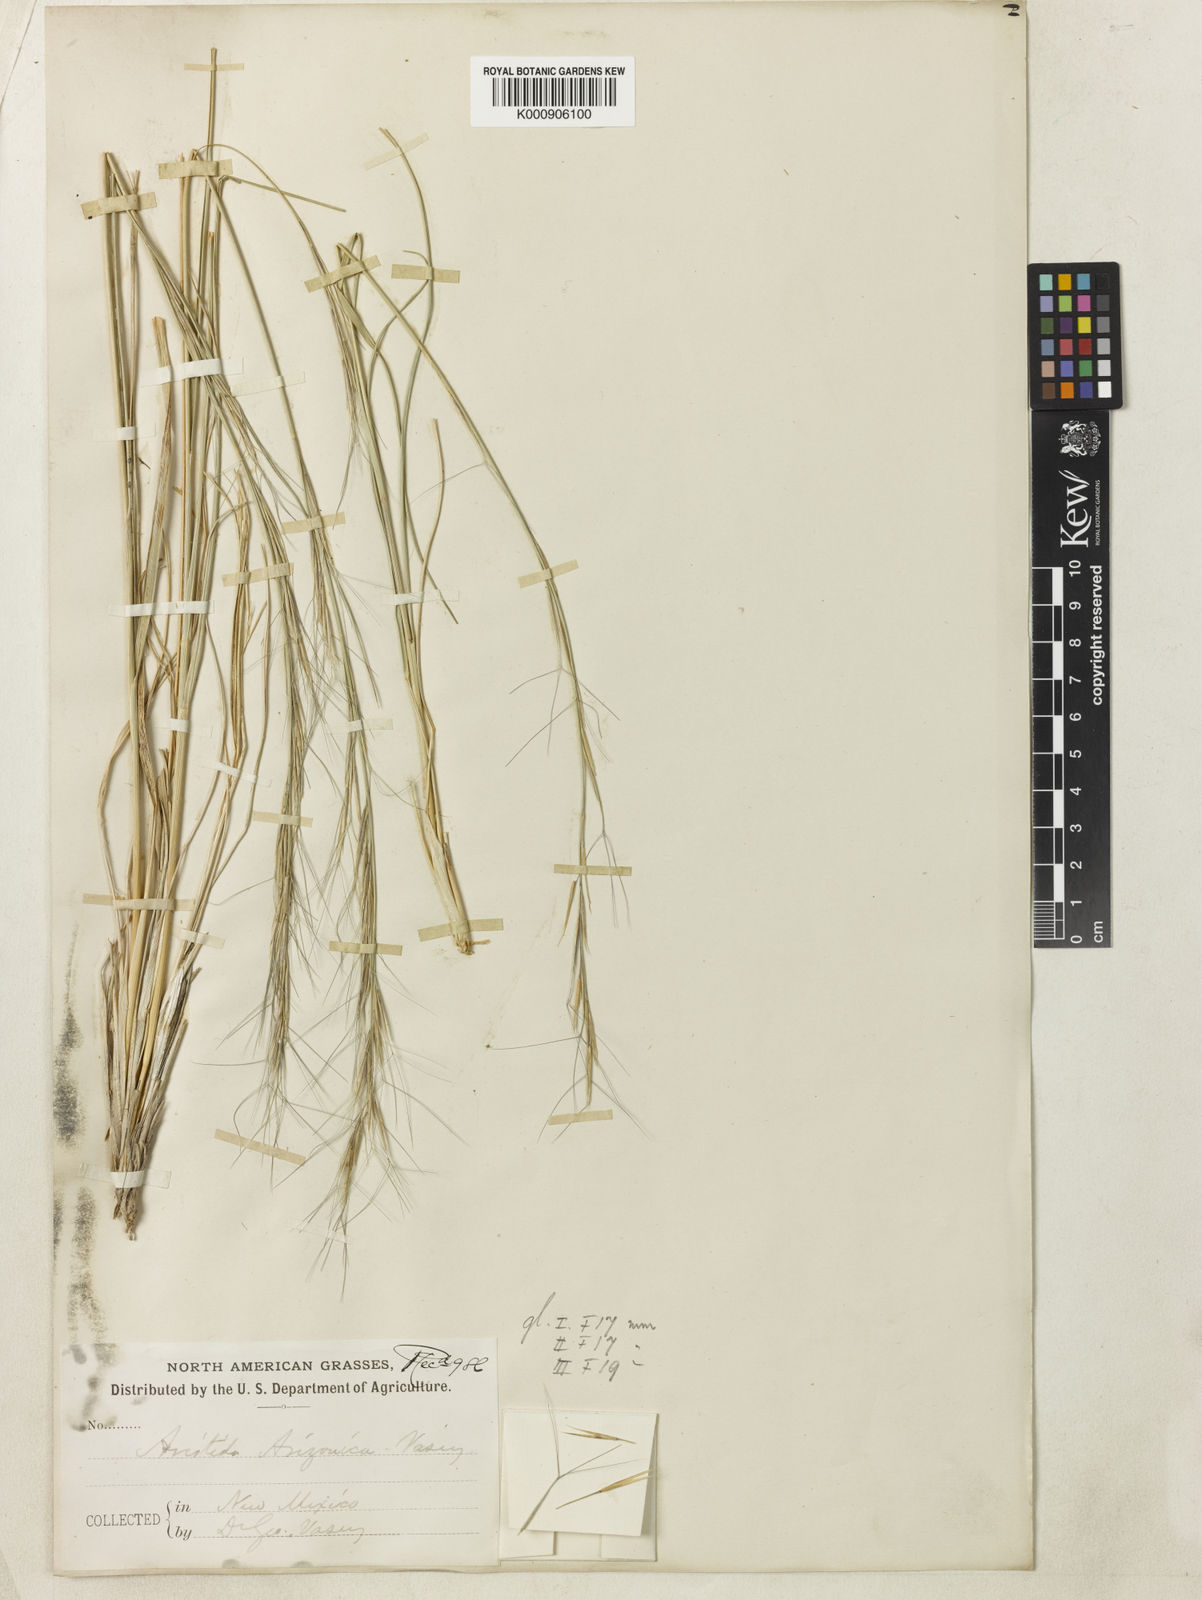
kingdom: Plantae
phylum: Tracheophyta
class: Liliopsida
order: Poales
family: Poaceae
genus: Aristida
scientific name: Aristida arizonica
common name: Arizona threeawn
